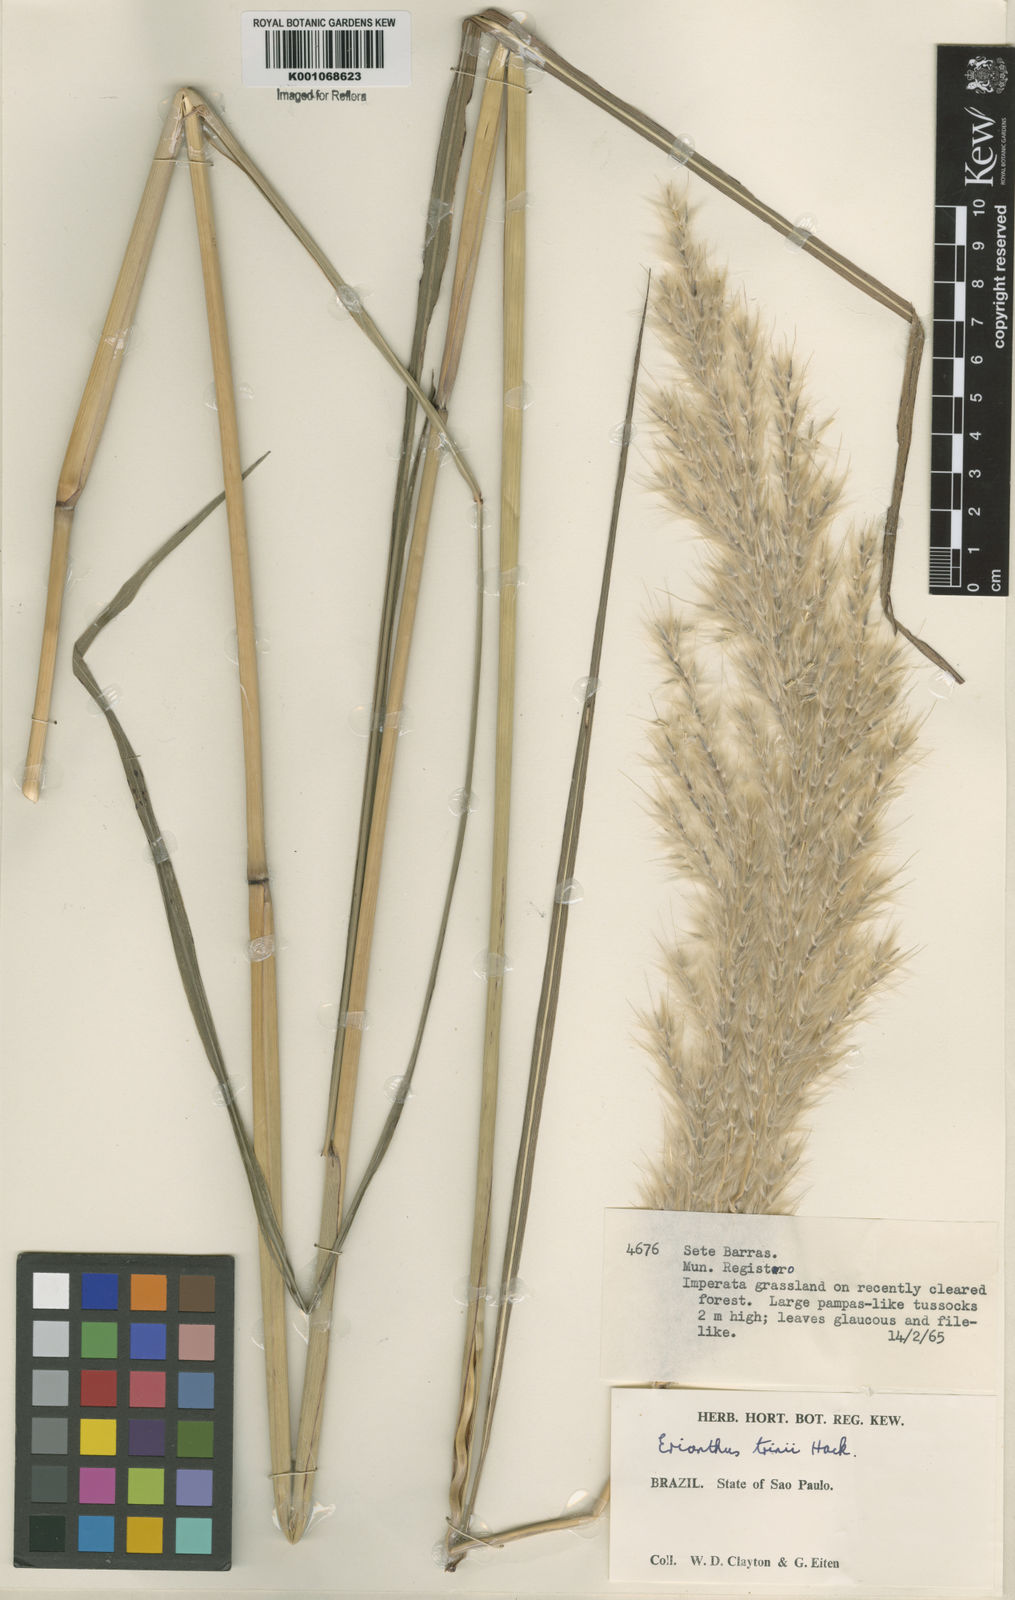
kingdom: Plantae
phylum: Tracheophyta
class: Liliopsida
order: Poales
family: Poaceae
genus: Saccharum
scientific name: Saccharum angustifolium
